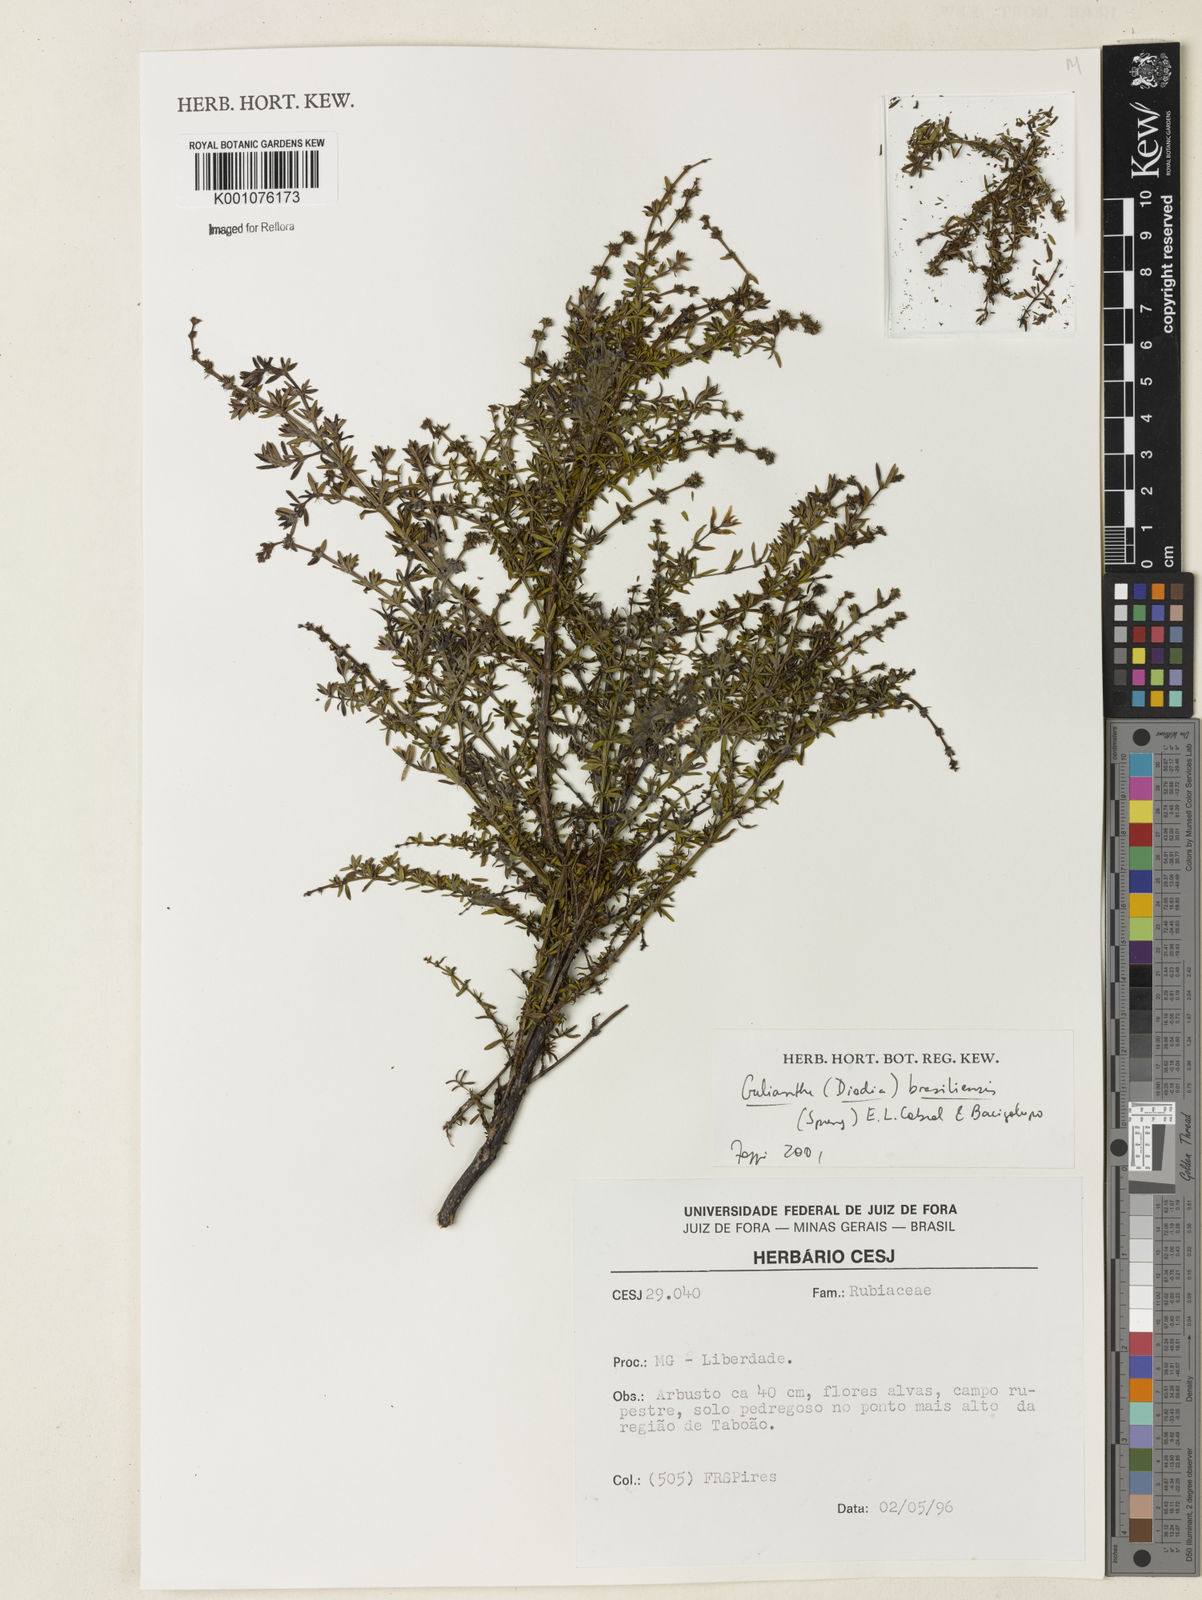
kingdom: Plantae
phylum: Tracheophyta
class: Magnoliopsida
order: Gentianales
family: Rubiaceae
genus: Spermacoce
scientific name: Spermacoce orinocensis
